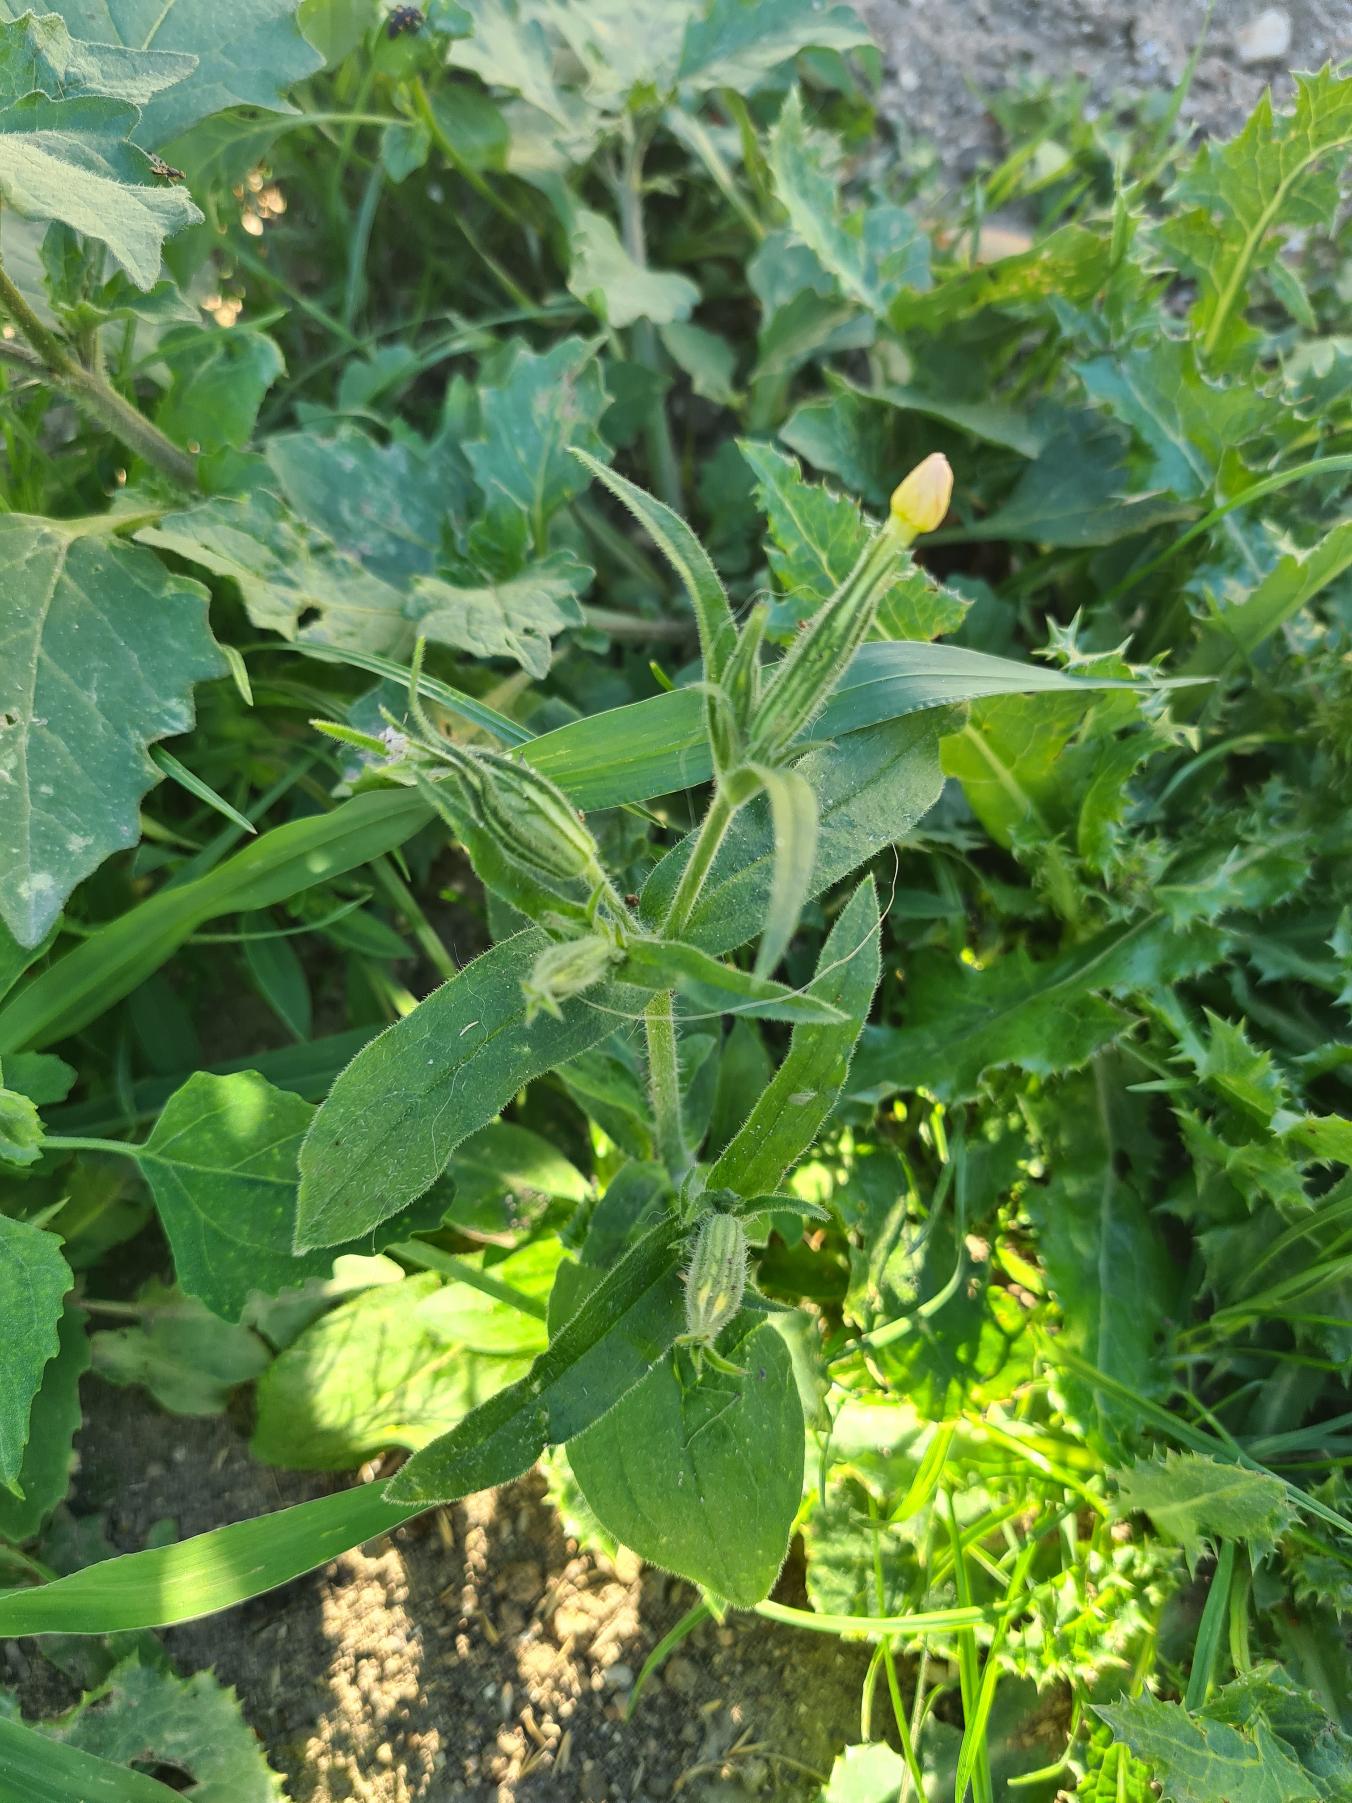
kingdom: Plantae
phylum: Tracheophyta
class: Magnoliopsida
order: Caryophyllales
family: Caryophyllaceae
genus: Silene
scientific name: Silene noctiflora
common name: Nat-limurt
